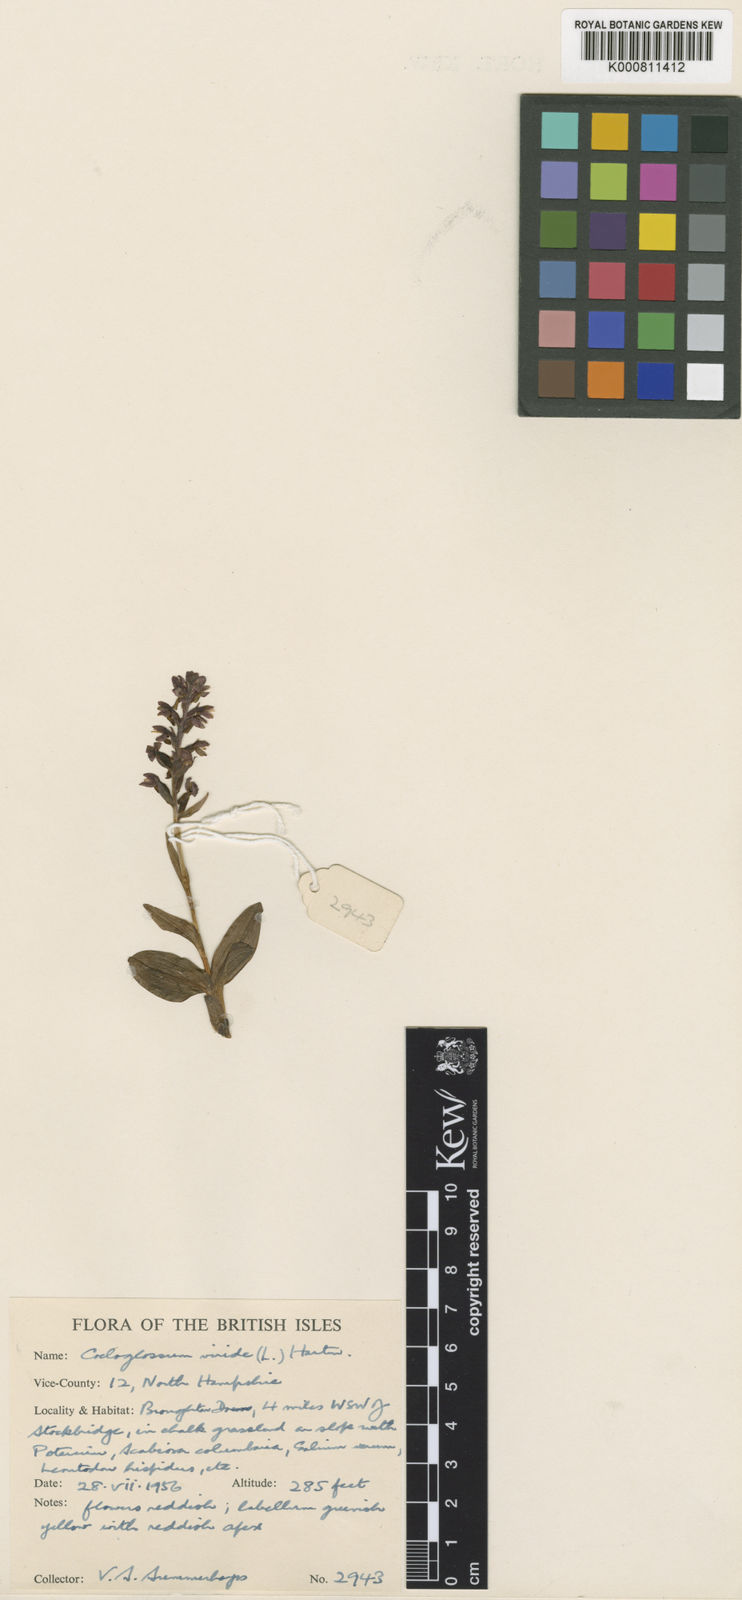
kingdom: Plantae
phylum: Tracheophyta
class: Liliopsida
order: Asparagales
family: Orchidaceae
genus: Dactylorhiza
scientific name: Dactylorhiza viridis
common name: Longbract frog orchid
